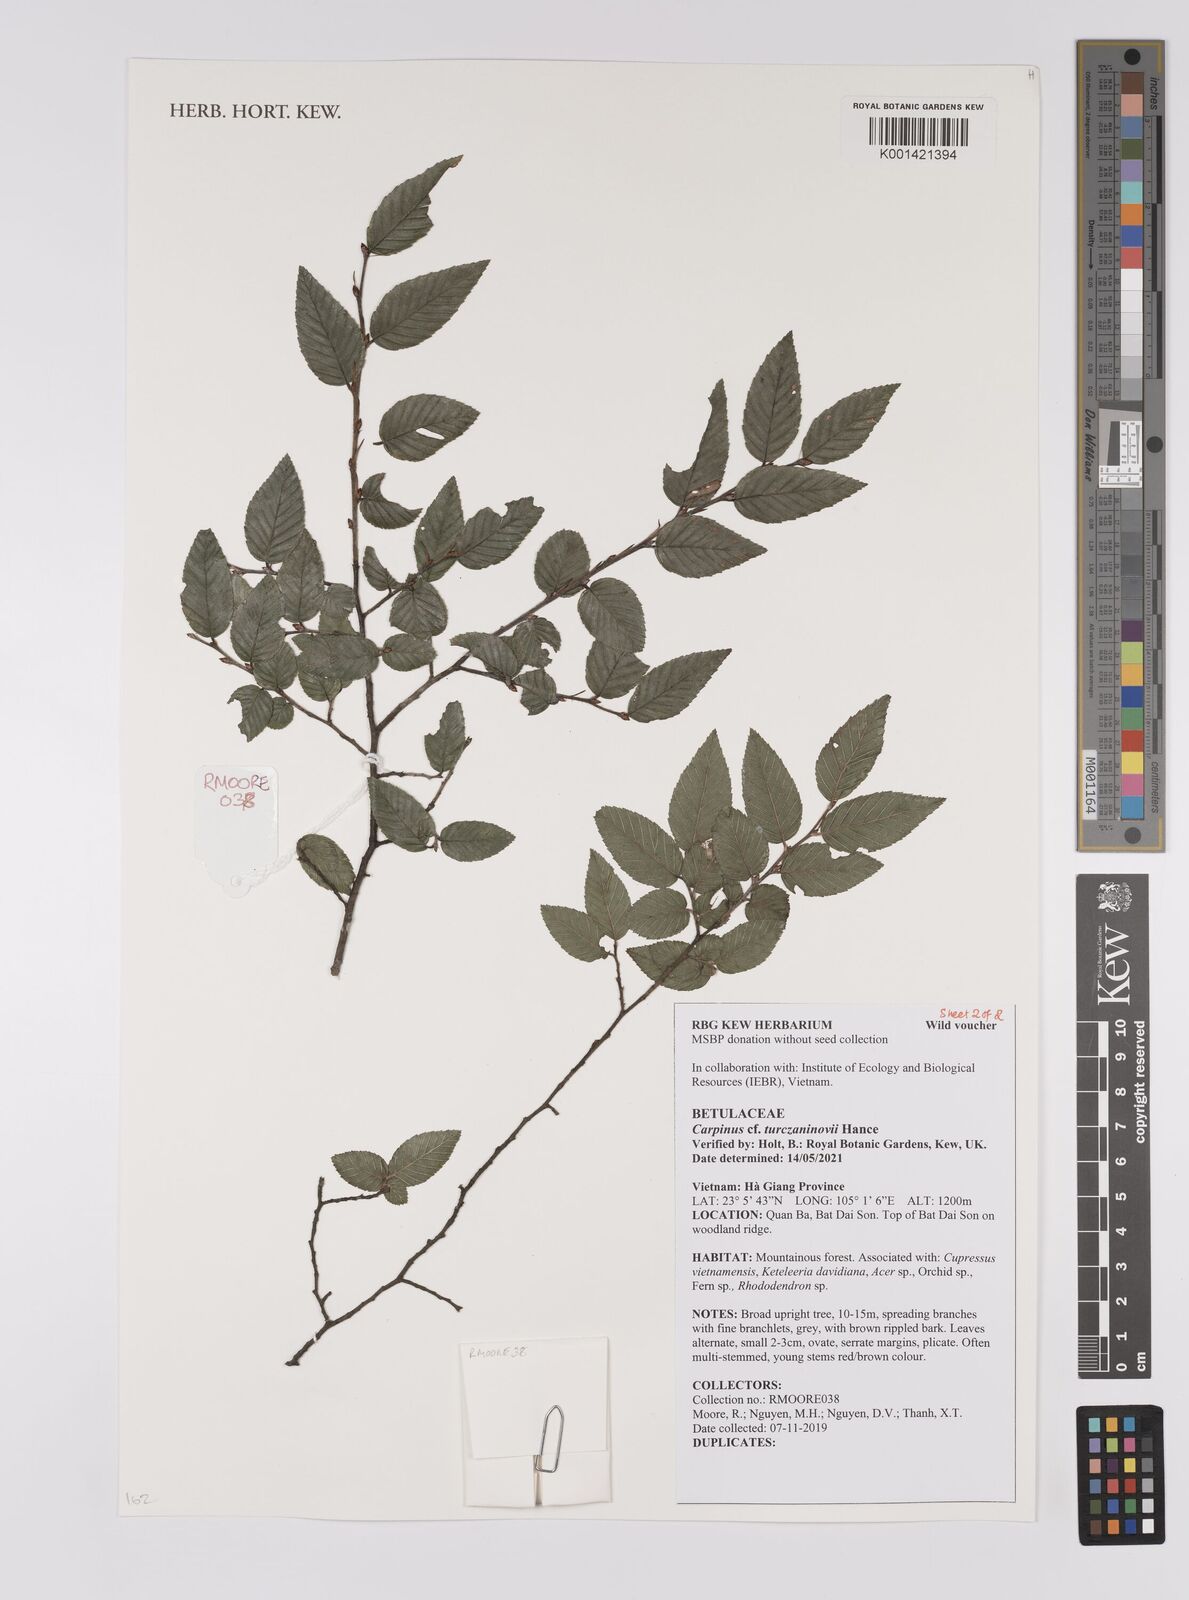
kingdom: Plantae
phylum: Tracheophyta
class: Magnoliopsida
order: Fagales
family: Betulaceae
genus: Carpinus
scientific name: Carpinus turczaninovii
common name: Korean hornbeam
